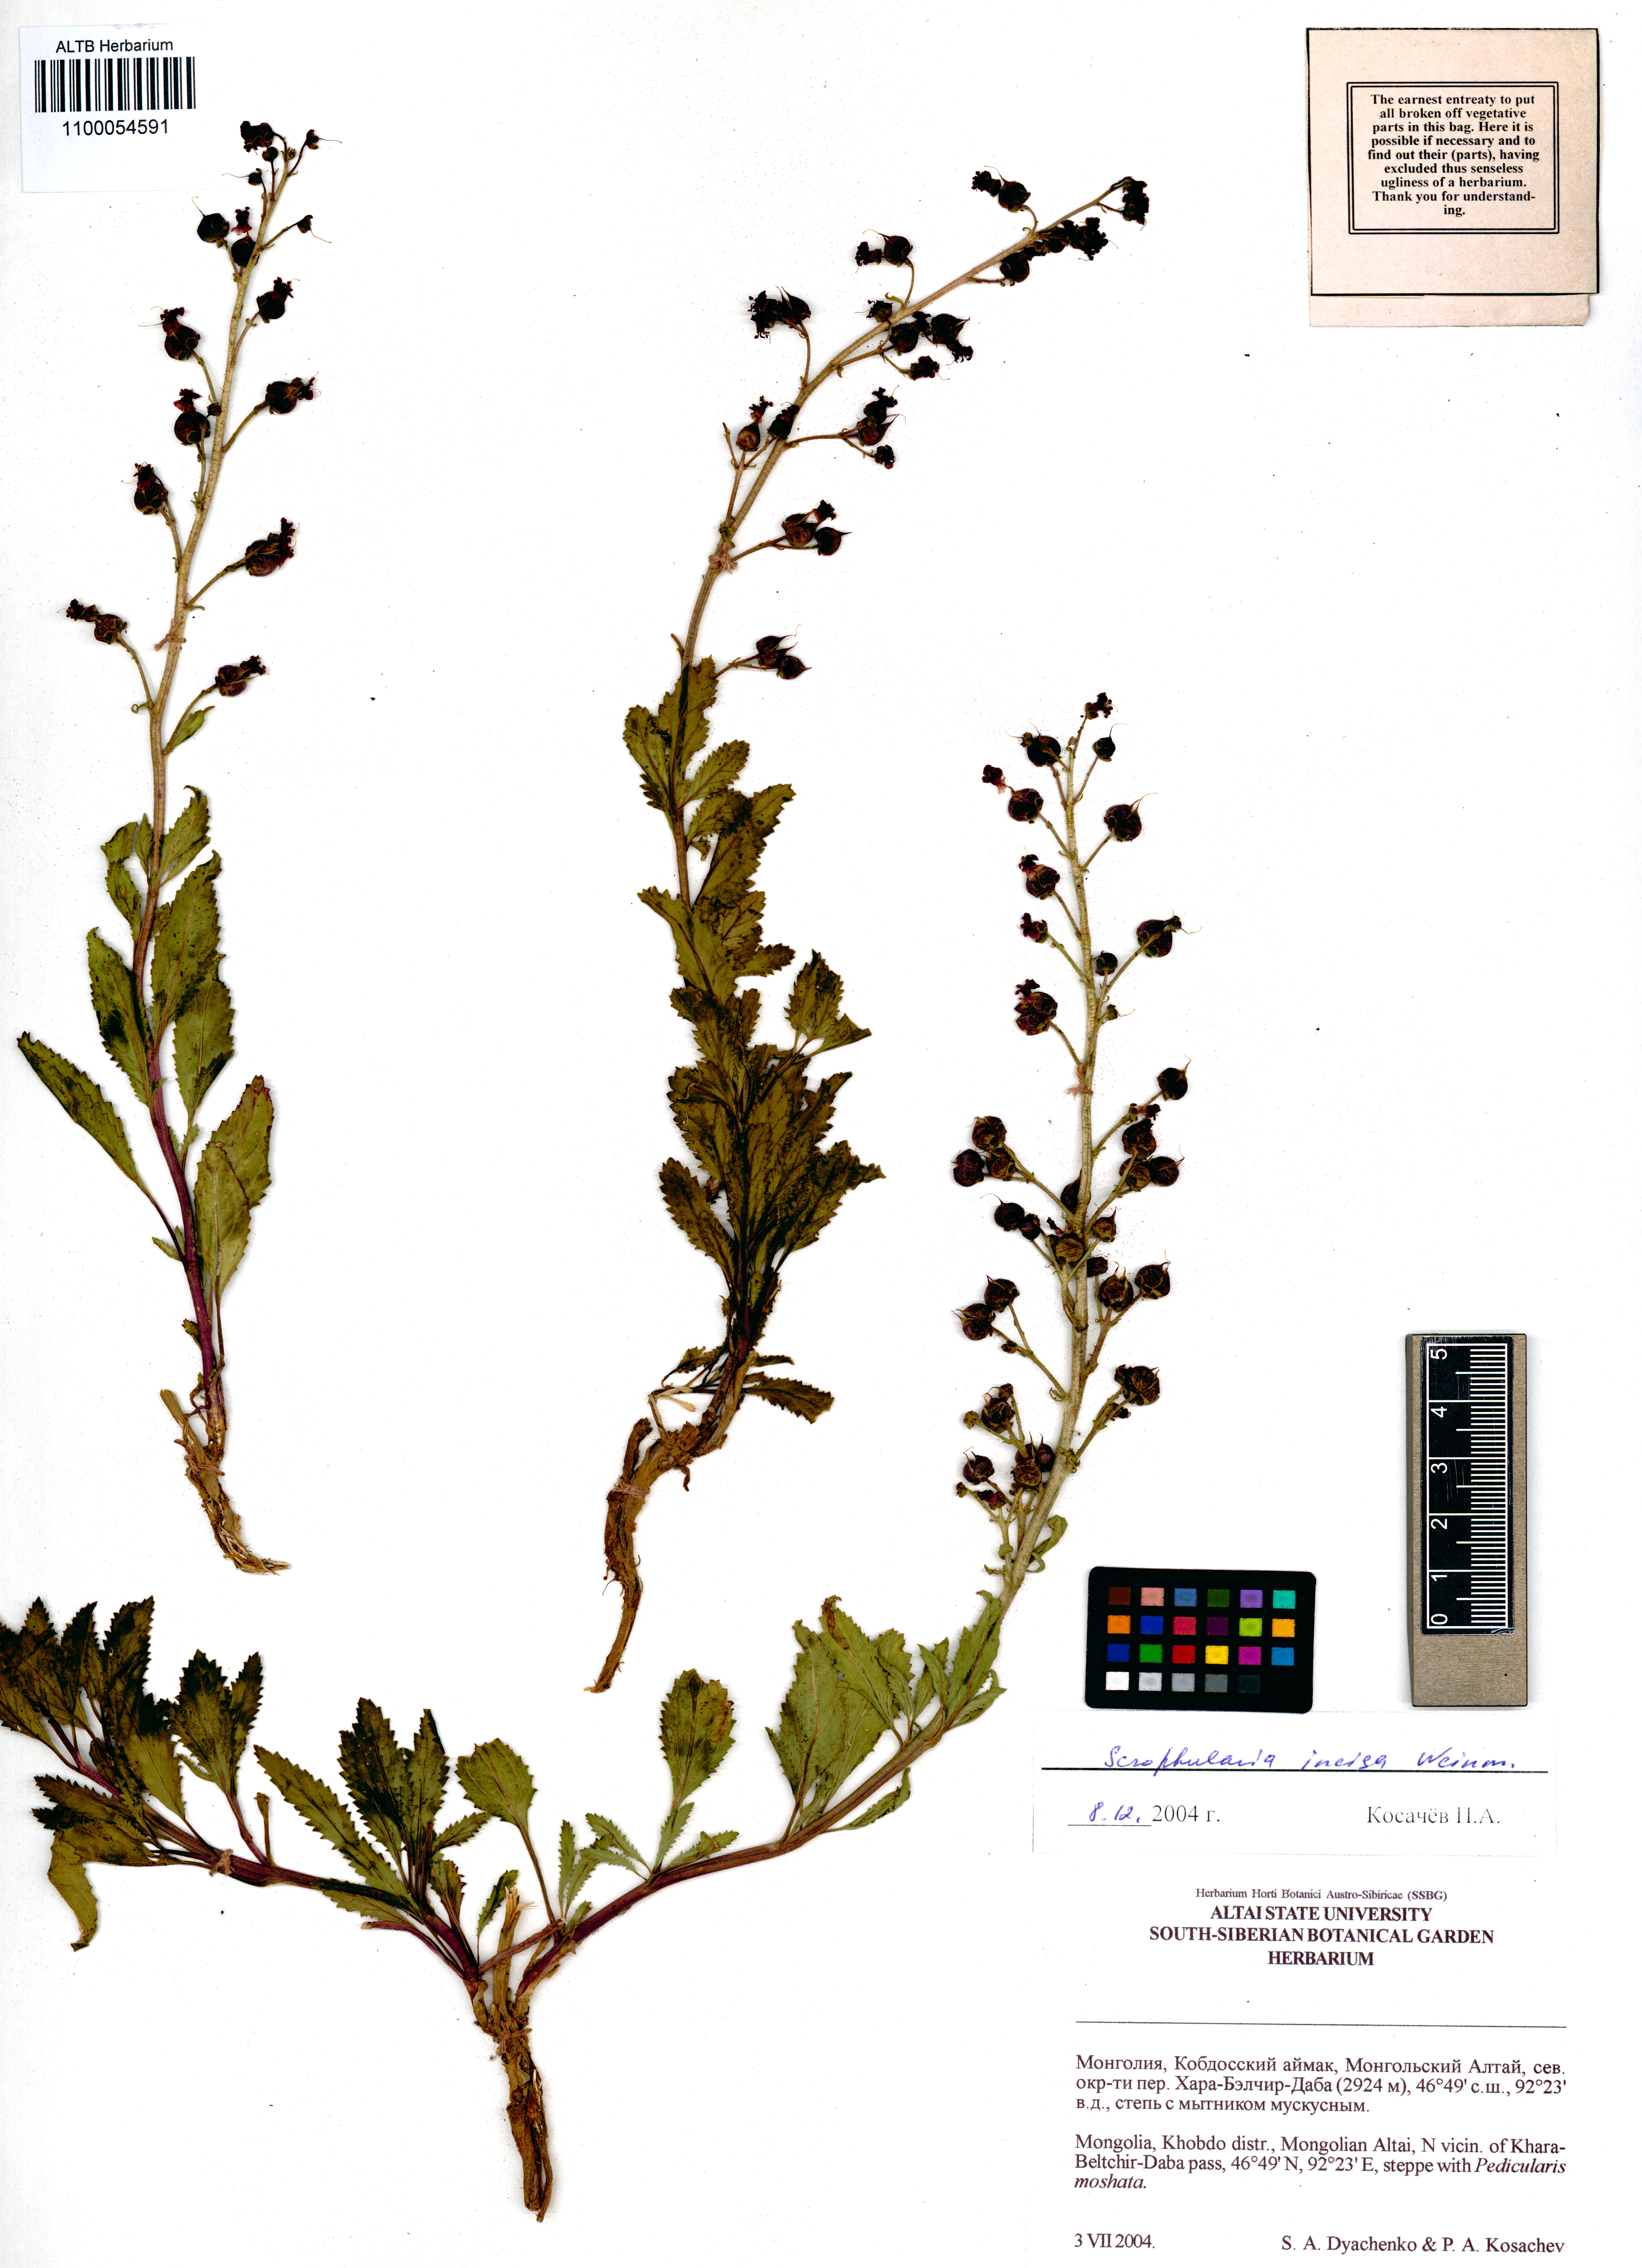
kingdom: Plantae
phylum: Tracheophyta
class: Magnoliopsida
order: Lamiales
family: Scrophulariaceae
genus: Scrophularia
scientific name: Scrophularia incisa
